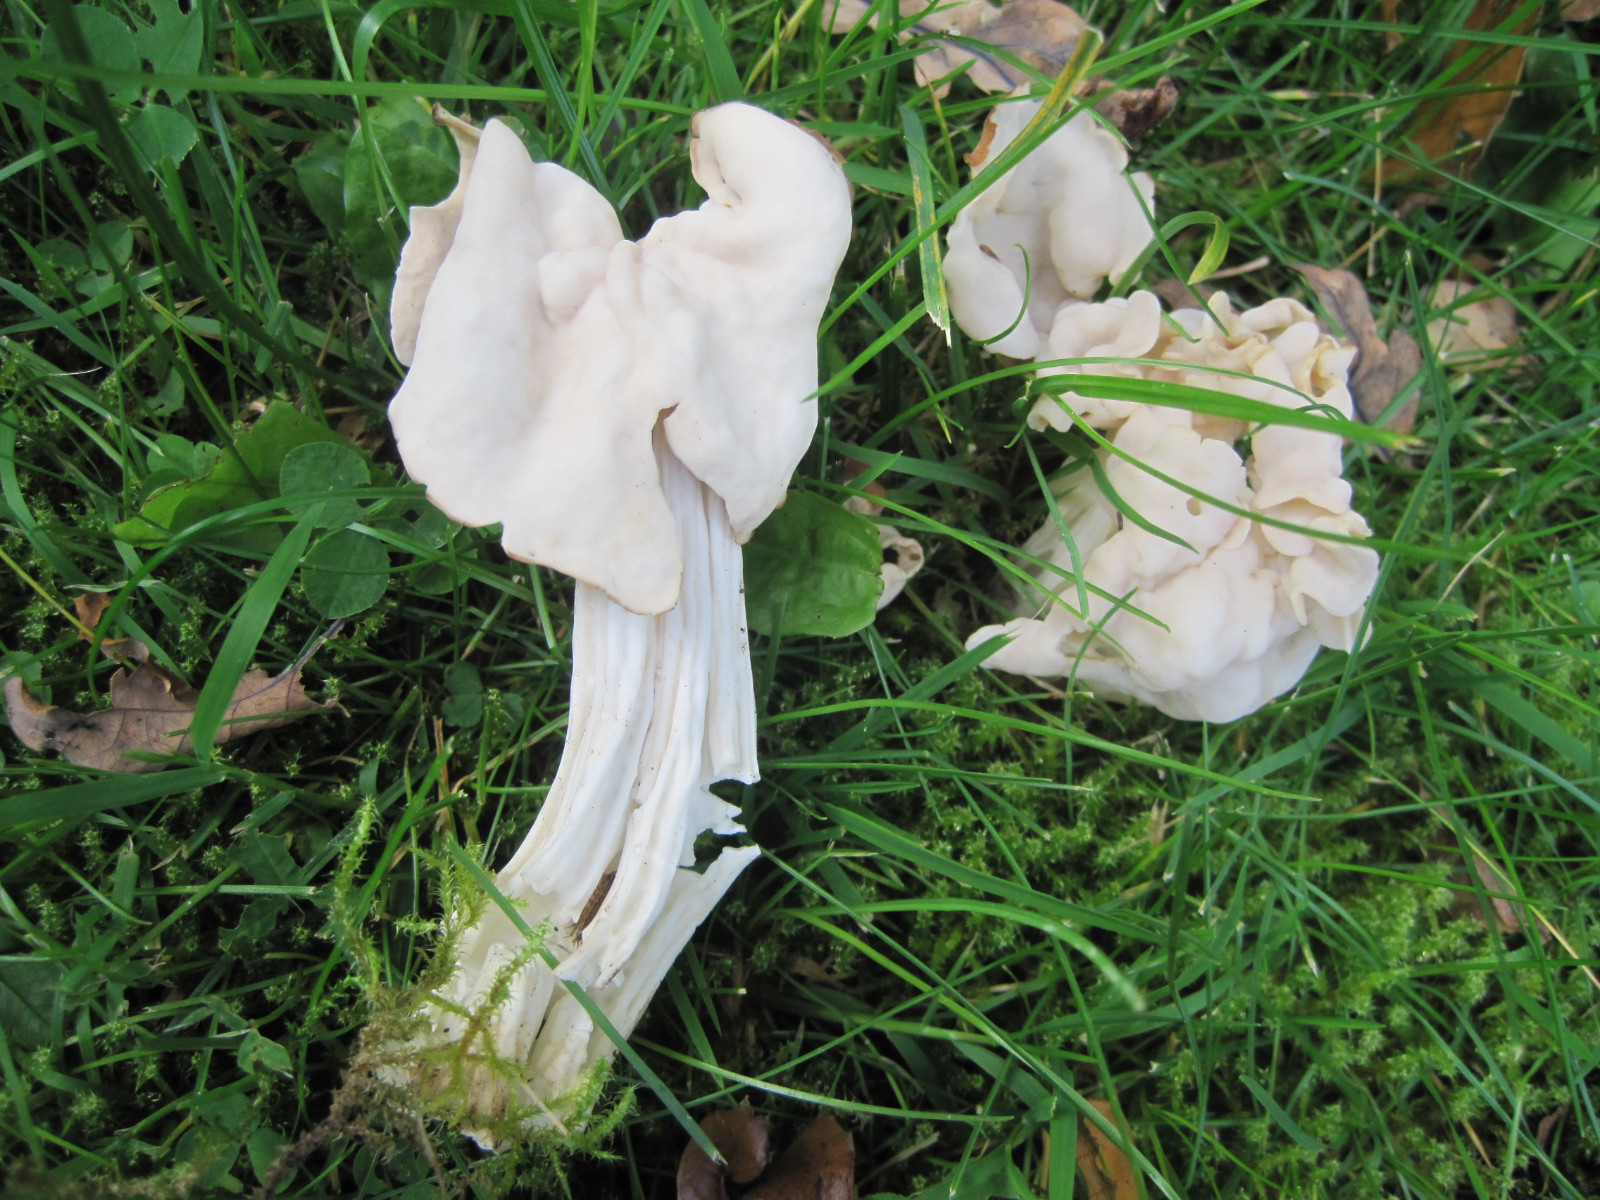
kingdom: Fungi
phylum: Ascomycota
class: Pezizomycetes
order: Pezizales
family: Helvellaceae
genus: Helvella
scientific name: Helvella crispa
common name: kruset foldhat
